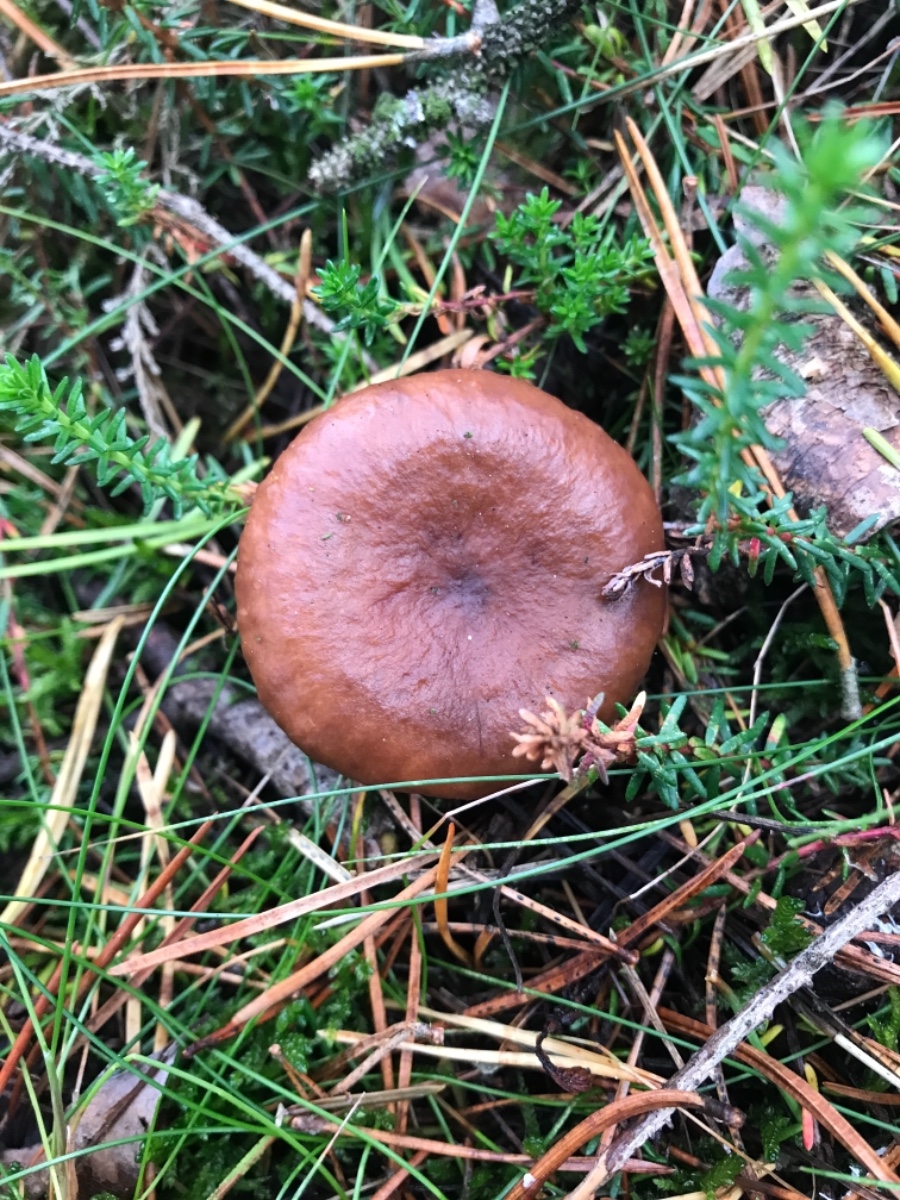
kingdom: Fungi
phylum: Basidiomycota
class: Agaricomycetes
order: Russulales
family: Russulaceae
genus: Lactarius
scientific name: Lactarius rufus
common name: rødbrun mælkehat
